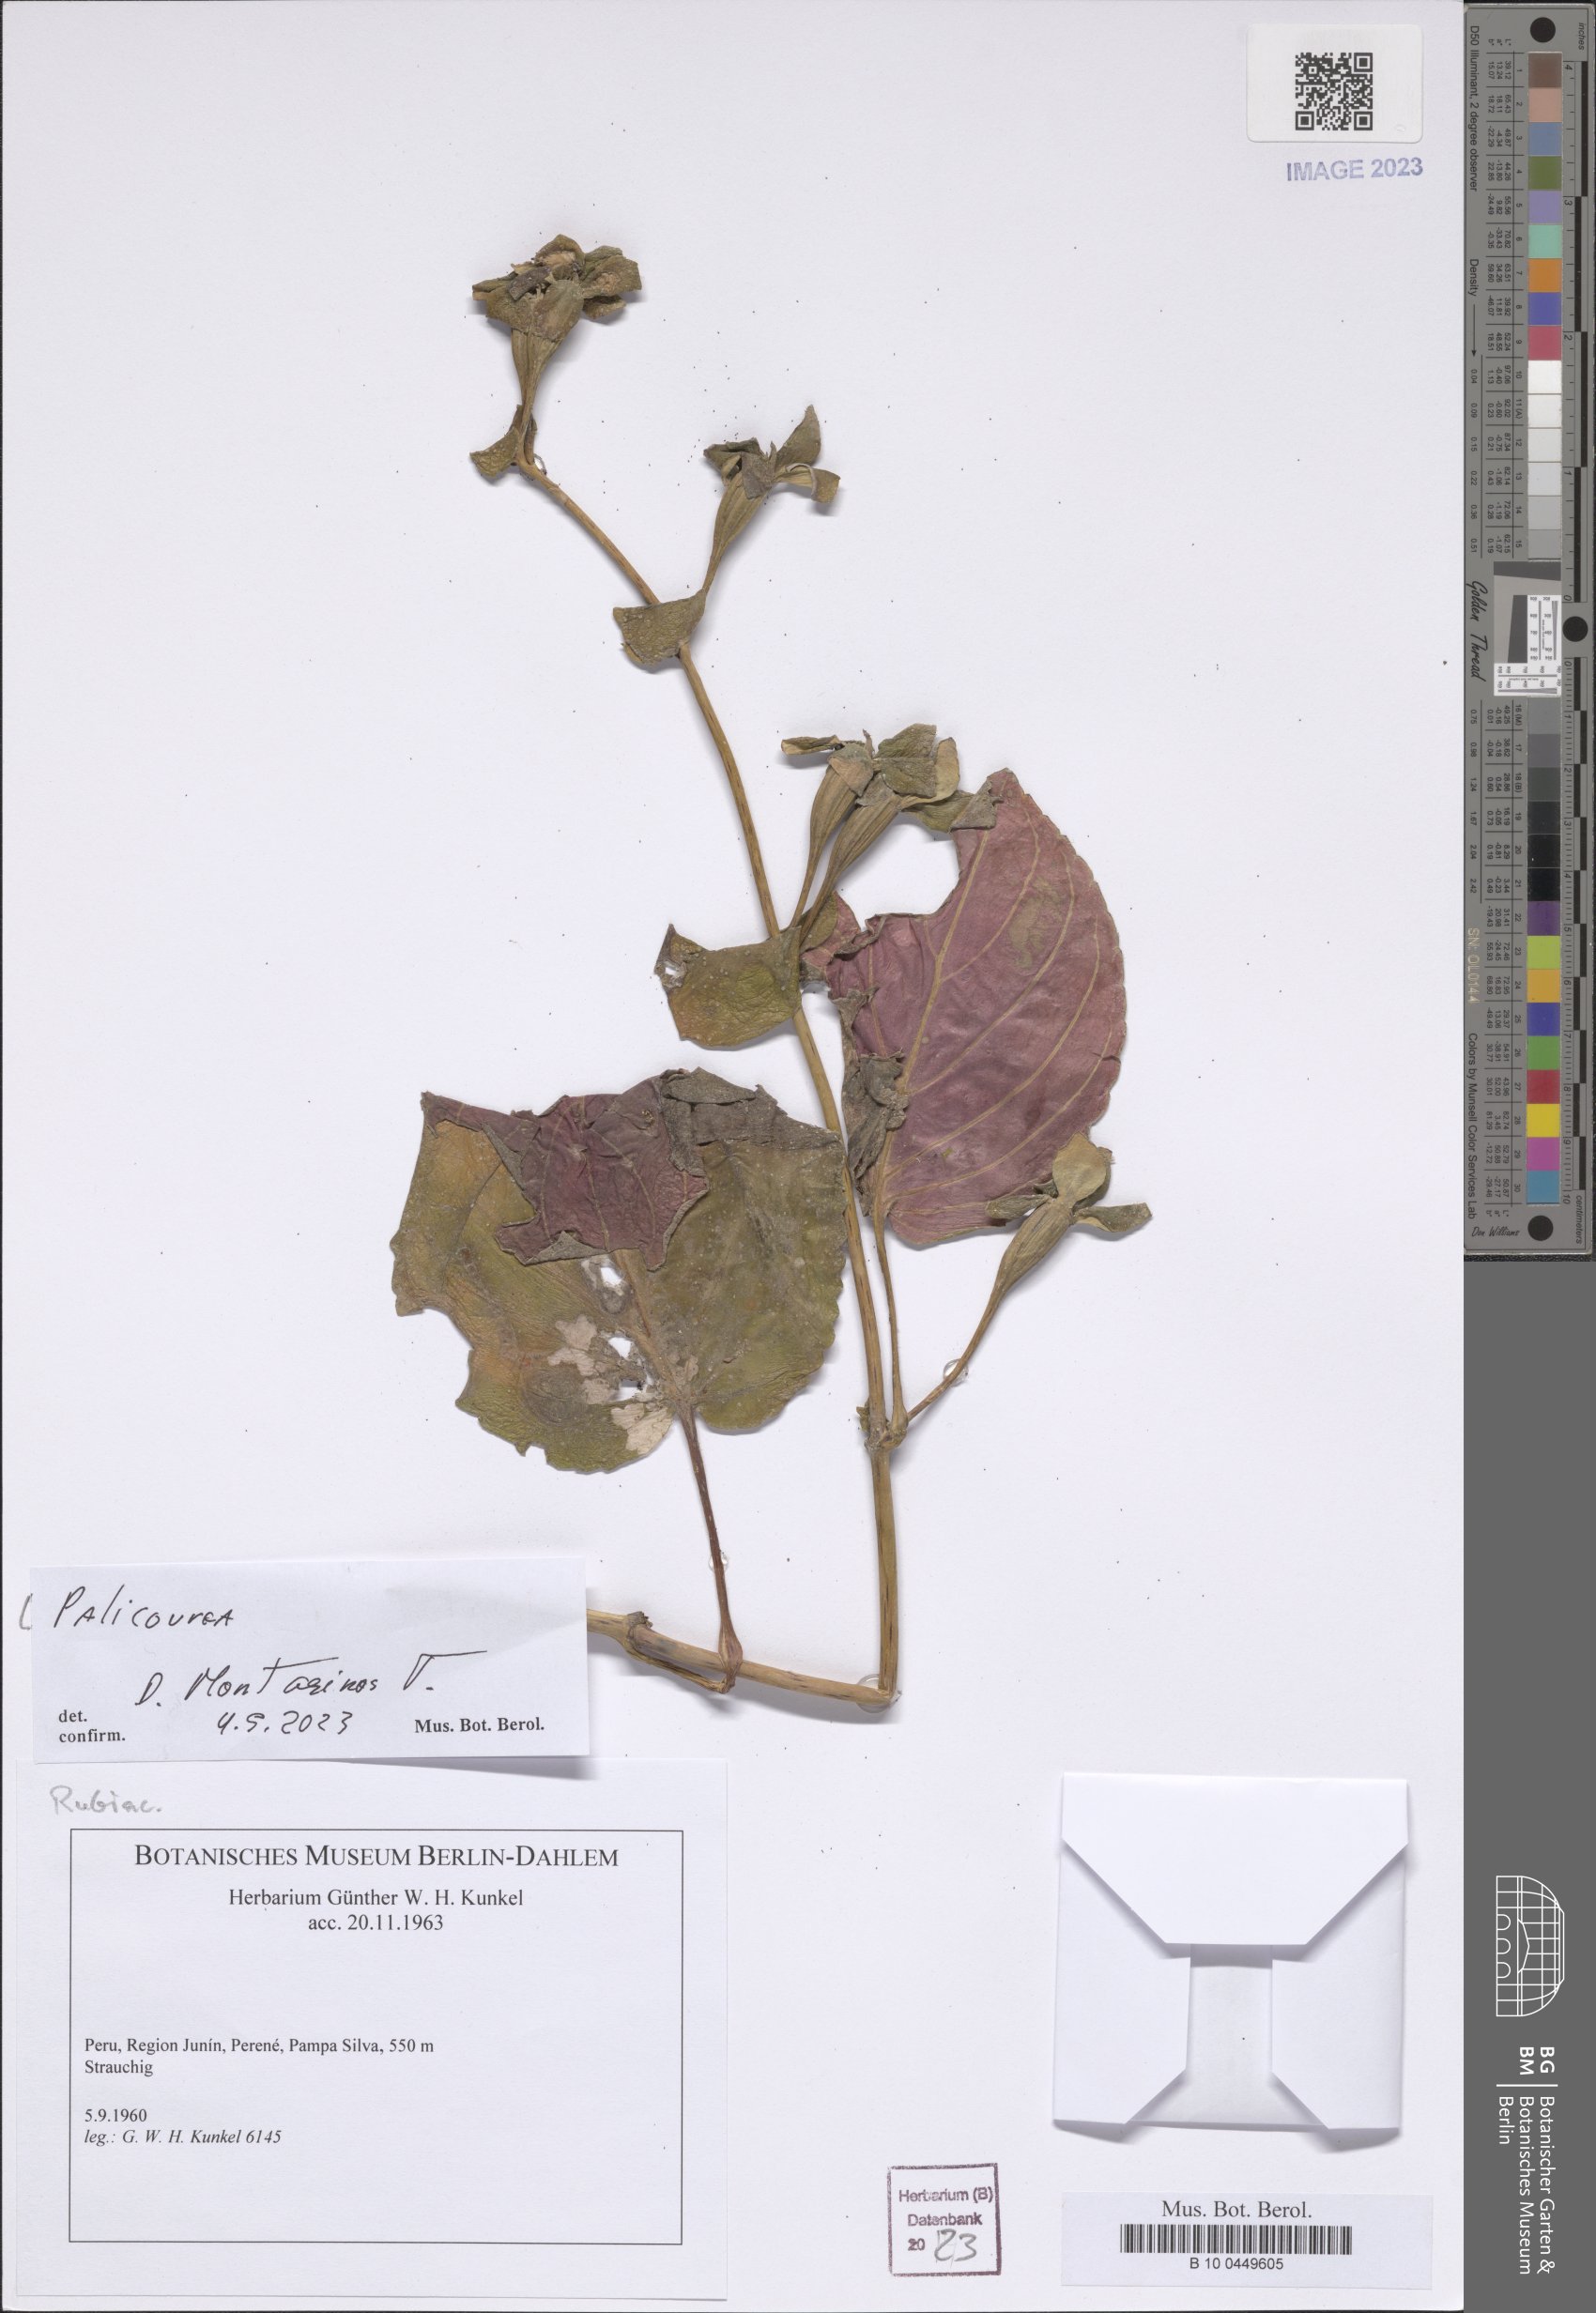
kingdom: Plantae
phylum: Tracheophyta
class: Magnoliopsida
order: Gentianales
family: Rubiaceae
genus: Palicourea
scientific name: Palicourea
